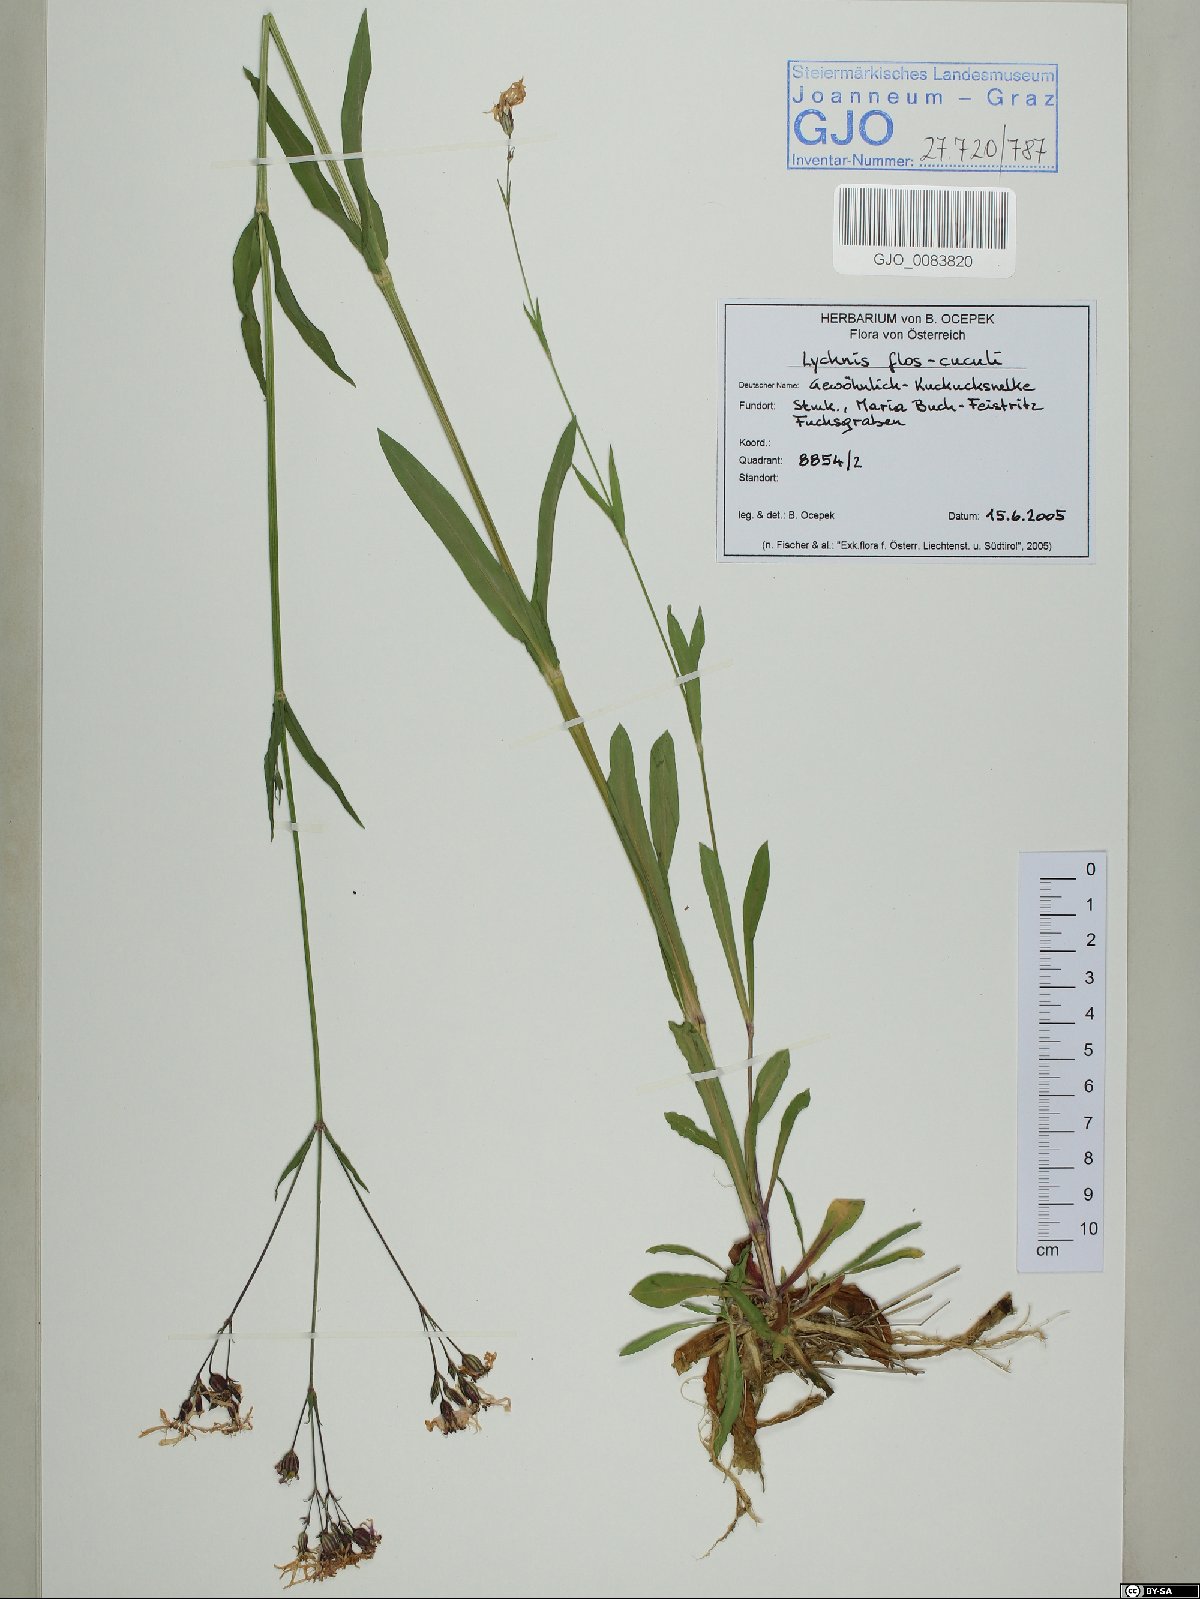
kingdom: Plantae
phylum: Tracheophyta
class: Magnoliopsida
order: Caryophyllales
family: Caryophyllaceae
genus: Silene
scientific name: Silene flos-cuculi
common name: Ragged-robin
